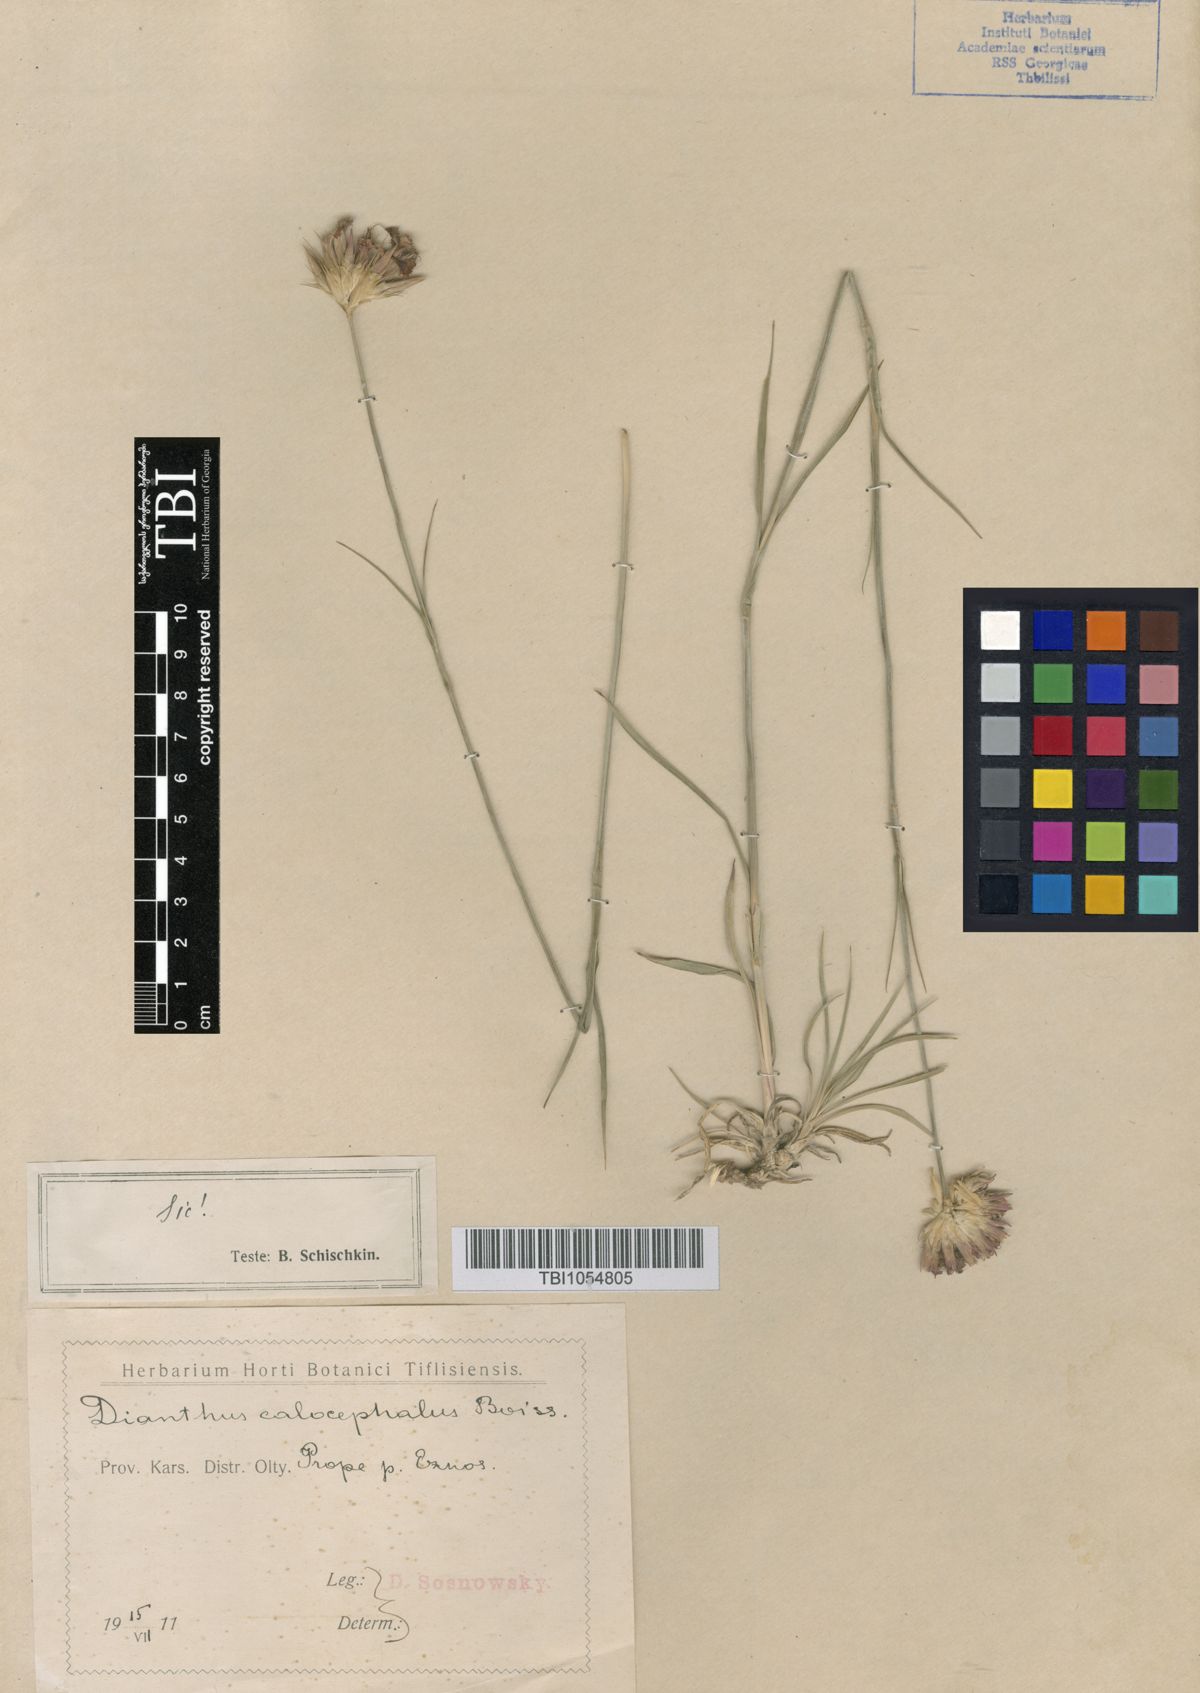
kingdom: Plantae
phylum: Tracheophyta
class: Magnoliopsida
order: Caryophyllales
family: Caryophyllaceae
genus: Dianthus
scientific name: Dianthus cruentus
